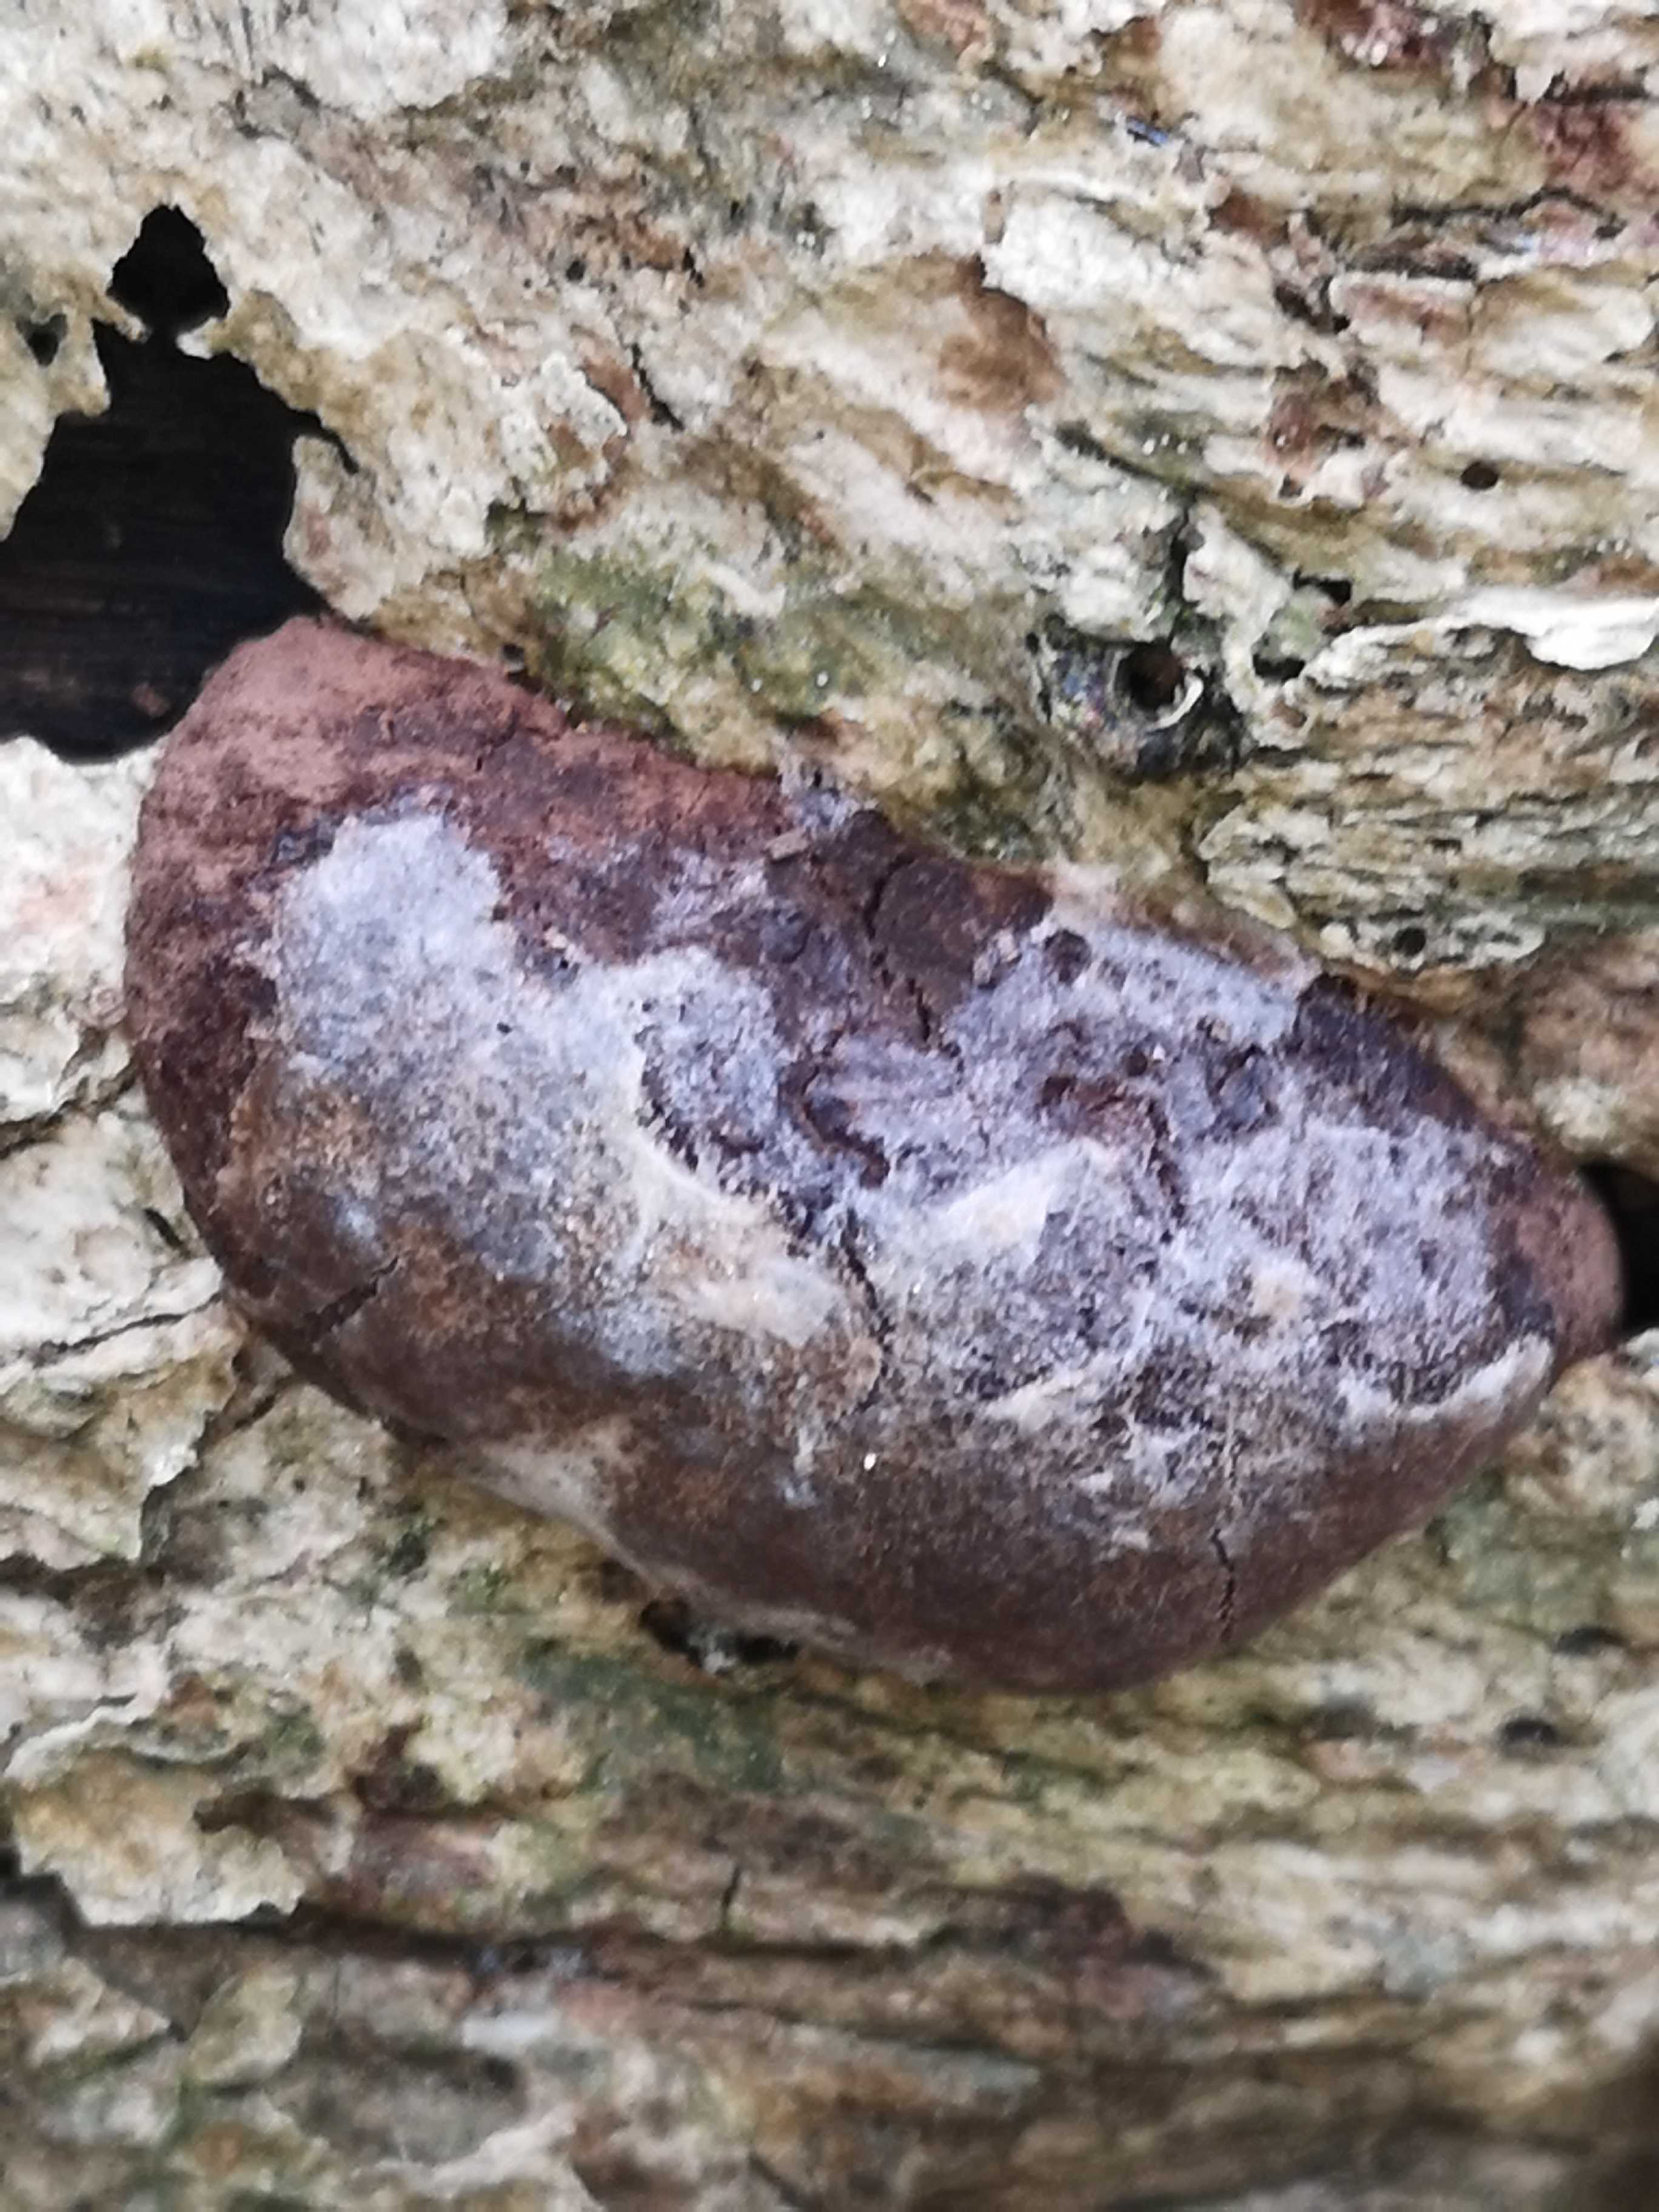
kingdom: Protozoa
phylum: Mycetozoa
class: Myxomycetes
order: Cribrariales
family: Tubiferaceae
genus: Reticularia
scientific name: Reticularia lycoperdon
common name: skinnende støvpude
